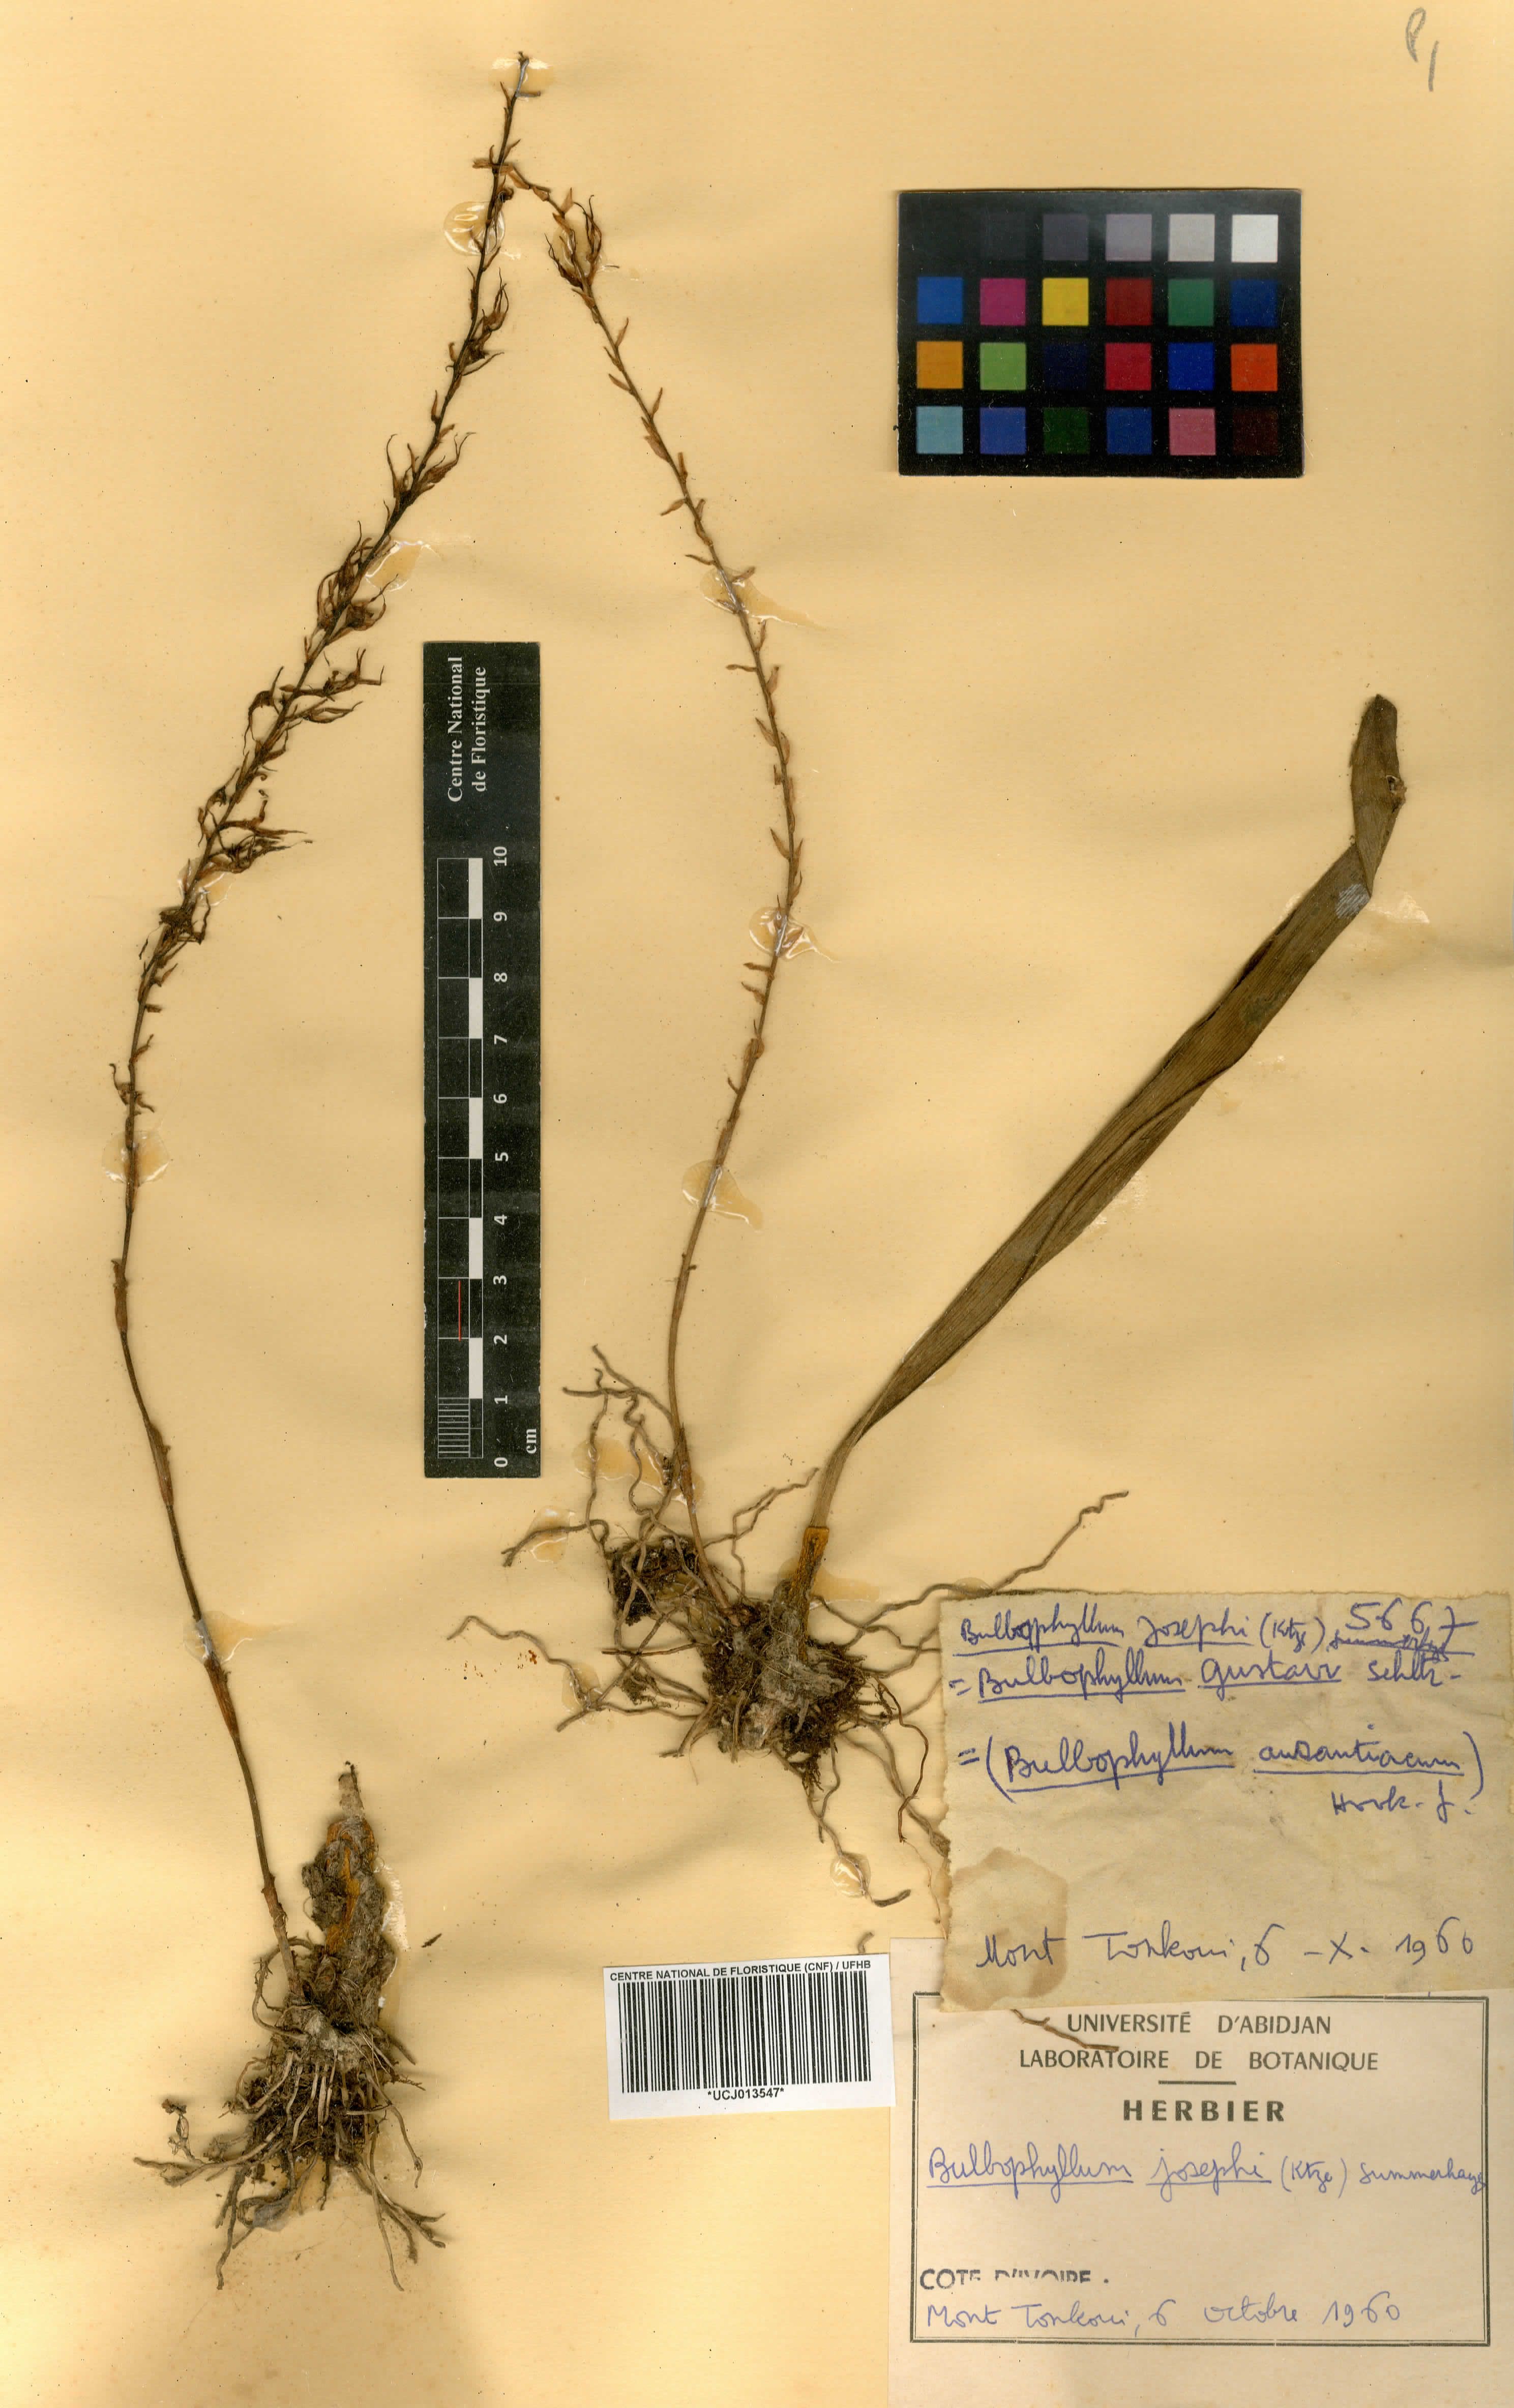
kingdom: Plantae
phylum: Tracheophyta
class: Liliopsida
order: Asparagales
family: Orchidaceae
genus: Bulbophyllum
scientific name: Bulbophyllum josephi
